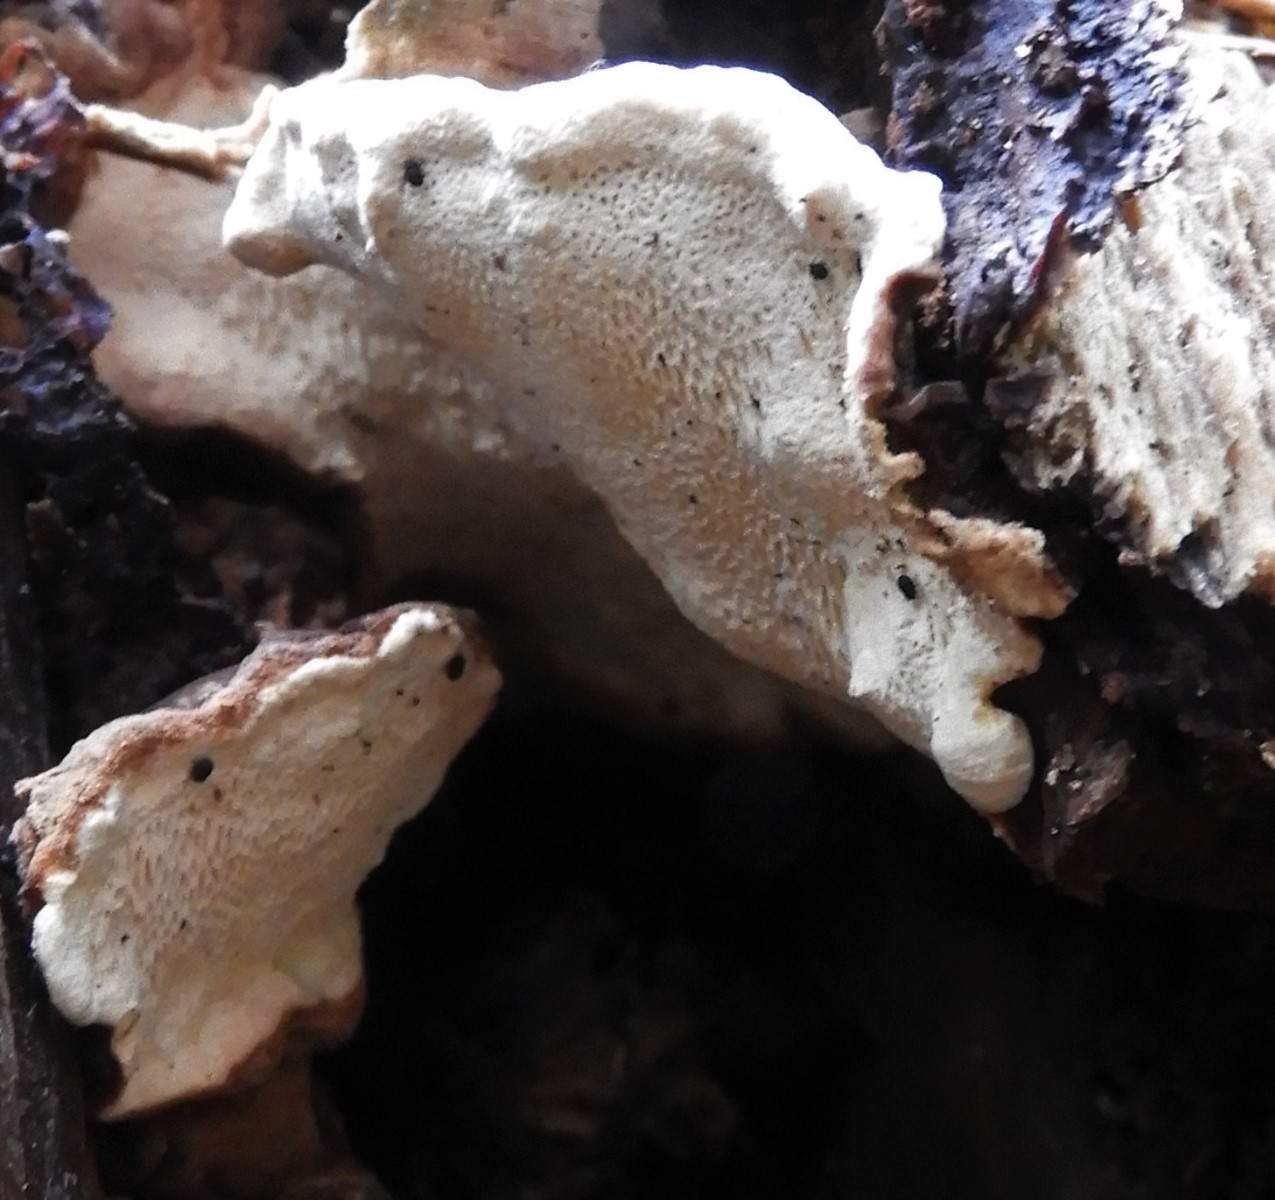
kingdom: Fungi
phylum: Basidiomycota
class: Agaricomycetes
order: Russulales
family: Bondarzewiaceae
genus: Heterobasidion
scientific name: Heterobasidion annosum
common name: almindelig rodfordærver
